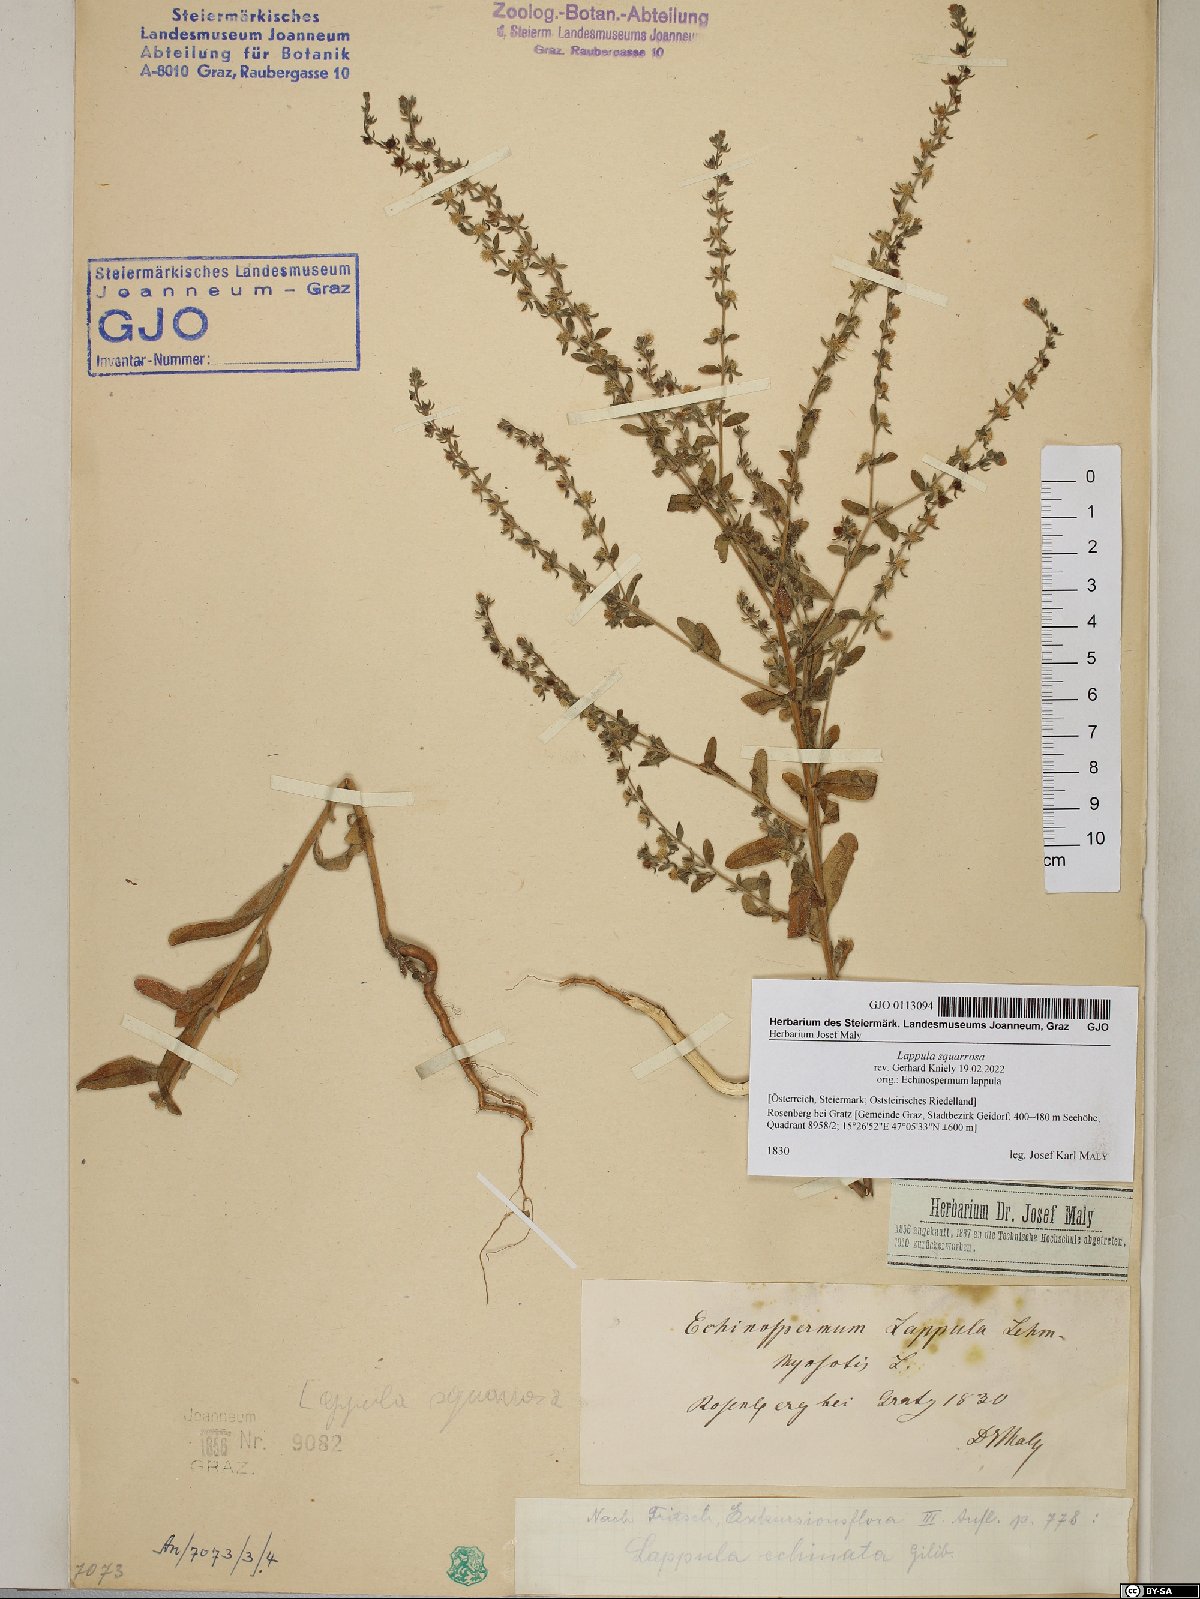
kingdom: Plantae
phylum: Tracheophyta
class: Magnoliopsida
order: Boraginales
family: Boraginaceae
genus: Lappula
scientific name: Lappula squarrosa
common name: European stickseed
